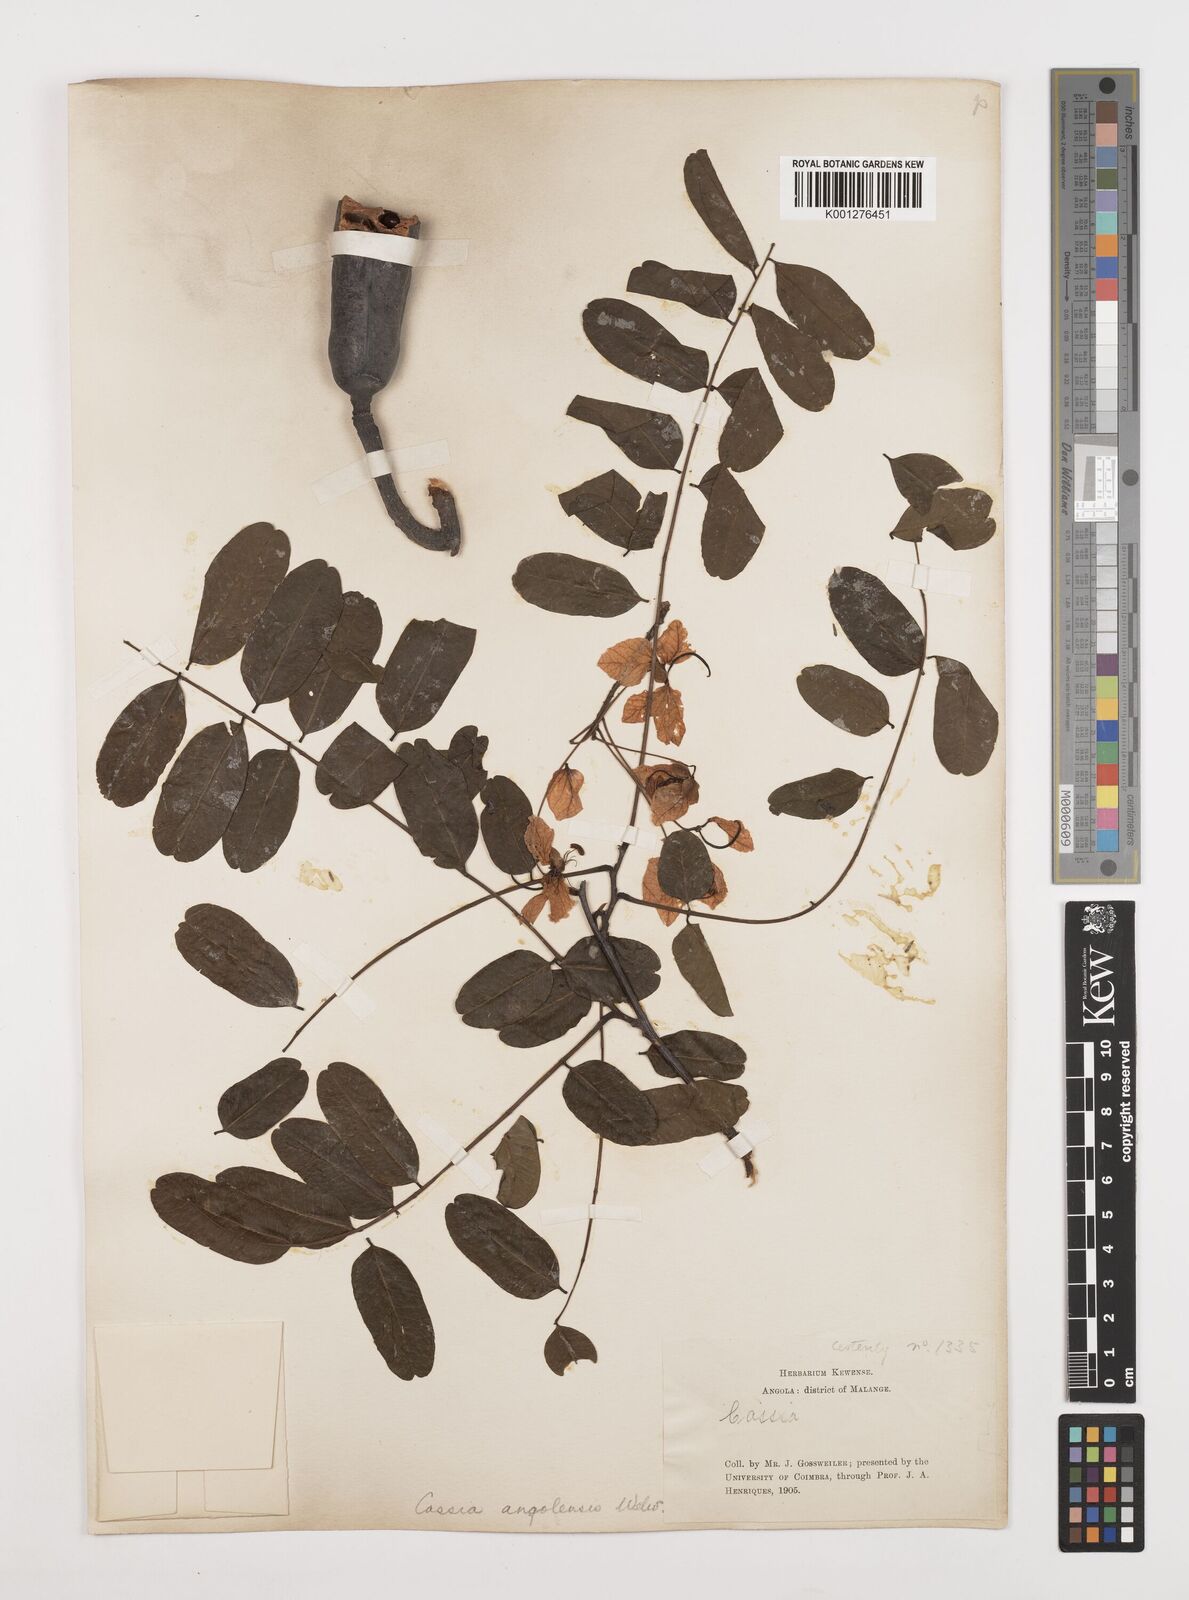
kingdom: Plantae
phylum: Tracheophyta
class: Magnoliopsida
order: Fabales
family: Fabaceae
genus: Cassia
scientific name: Cassia angolensis
